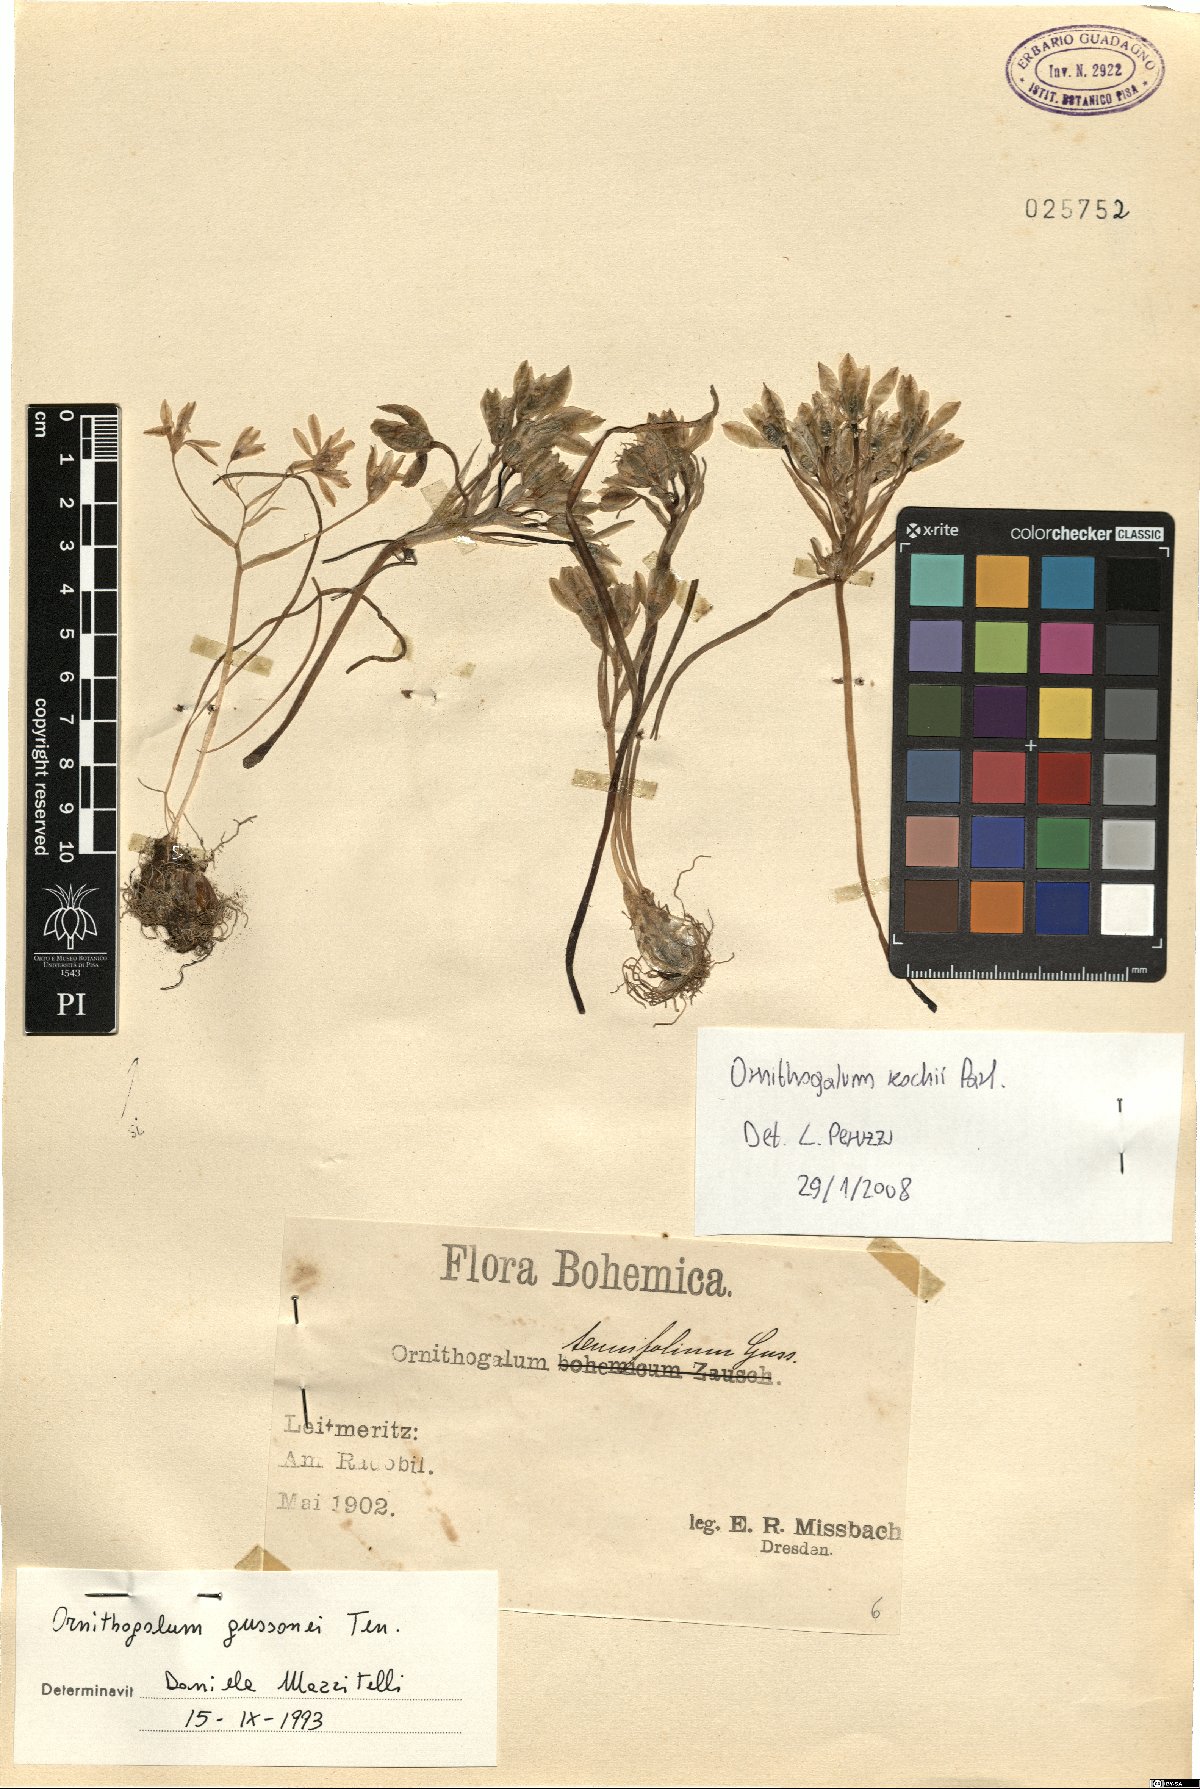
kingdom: Plantae
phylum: Tracheophyta
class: Liliopsida
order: Asparagales
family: Asparagaceae
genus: Ornithogalum
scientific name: Ornithogalum orthophyllum
